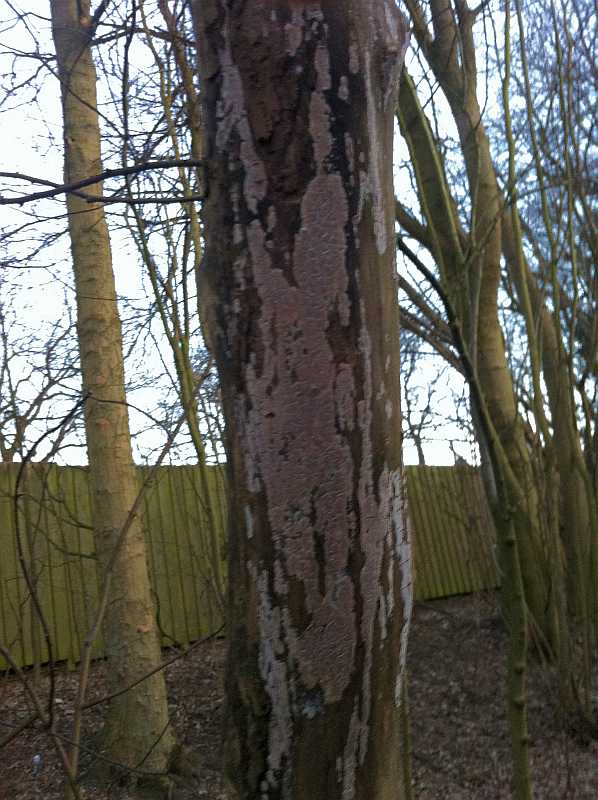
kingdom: Fungi
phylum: Basidiomycota
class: Agaricomycetes
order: Agaricales
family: Physalacriaceae
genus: Cylindrobasidium
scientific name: Cylindrobasidium evolvens
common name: sprækkehinde
